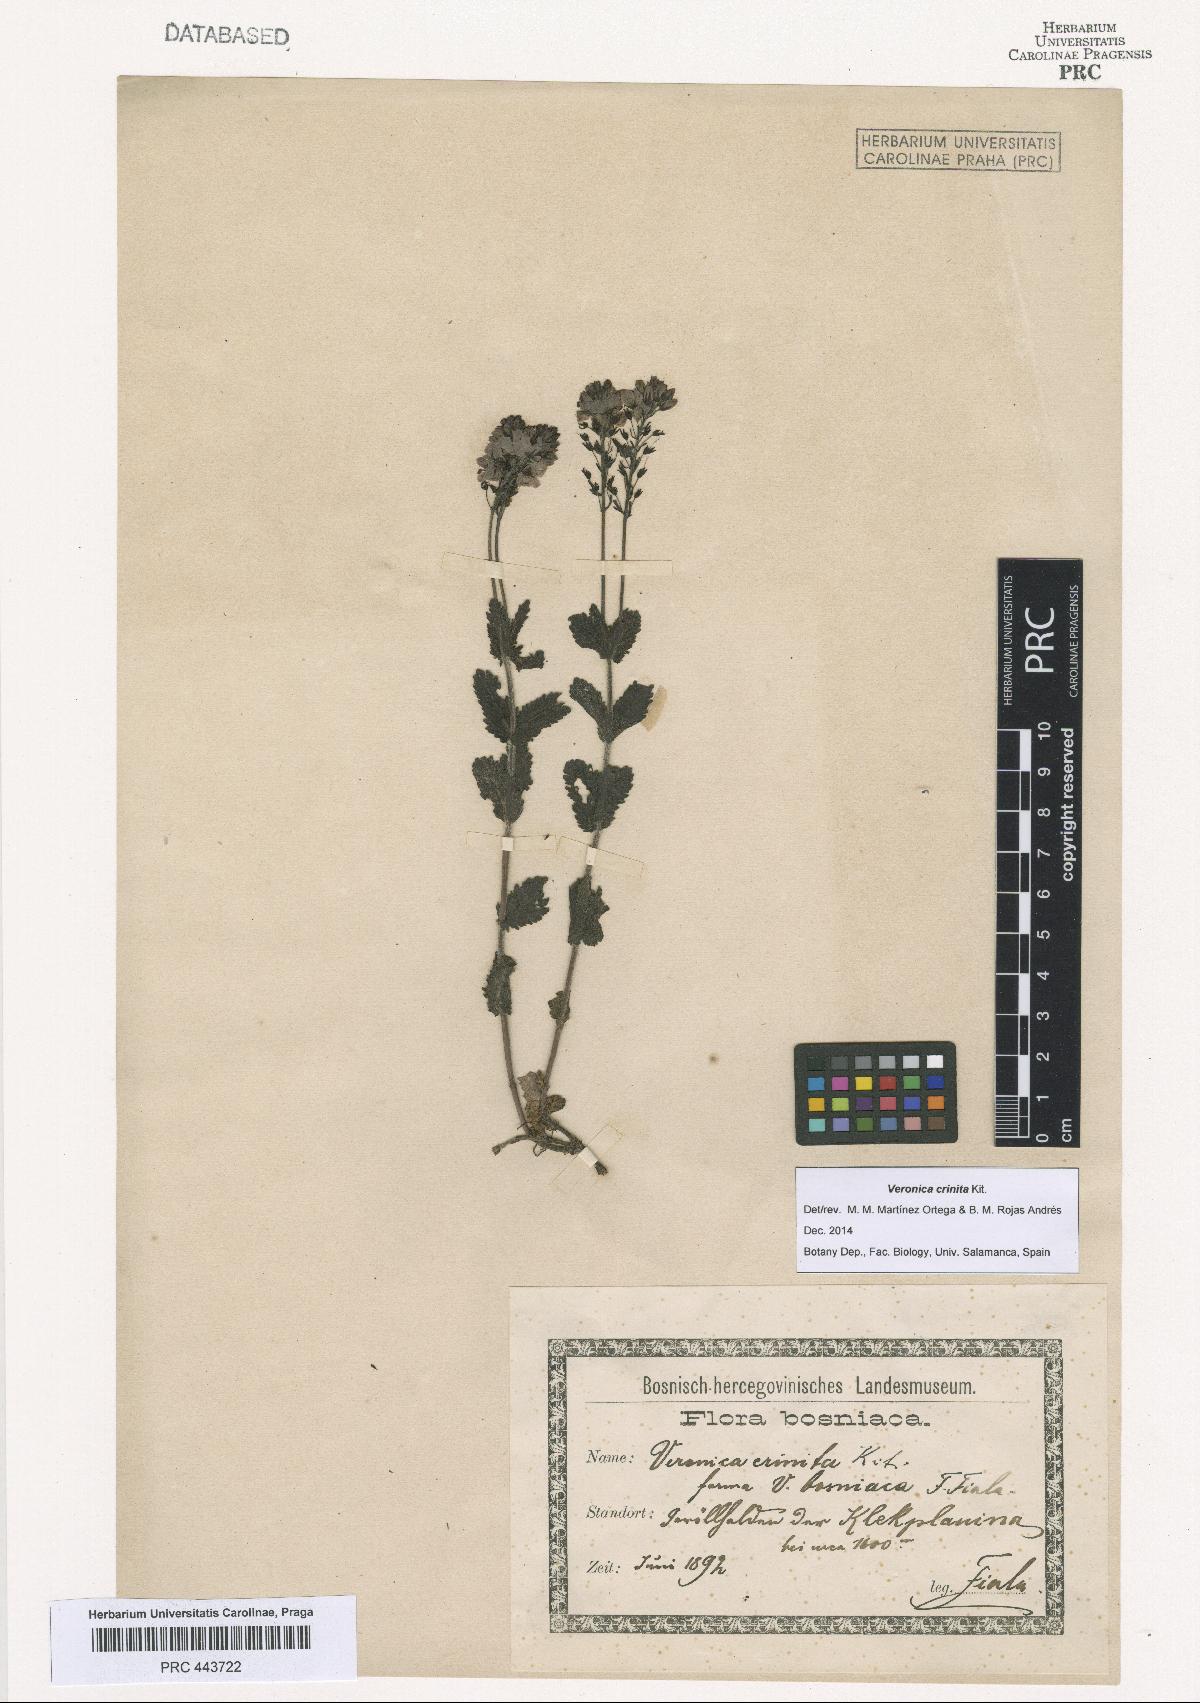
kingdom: Plantae
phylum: Tracheophyta
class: Magnoliopsida
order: Lamiales
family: Plantaginaceae
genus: Veronica
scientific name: Veronica teucrium
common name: Large speedwell
